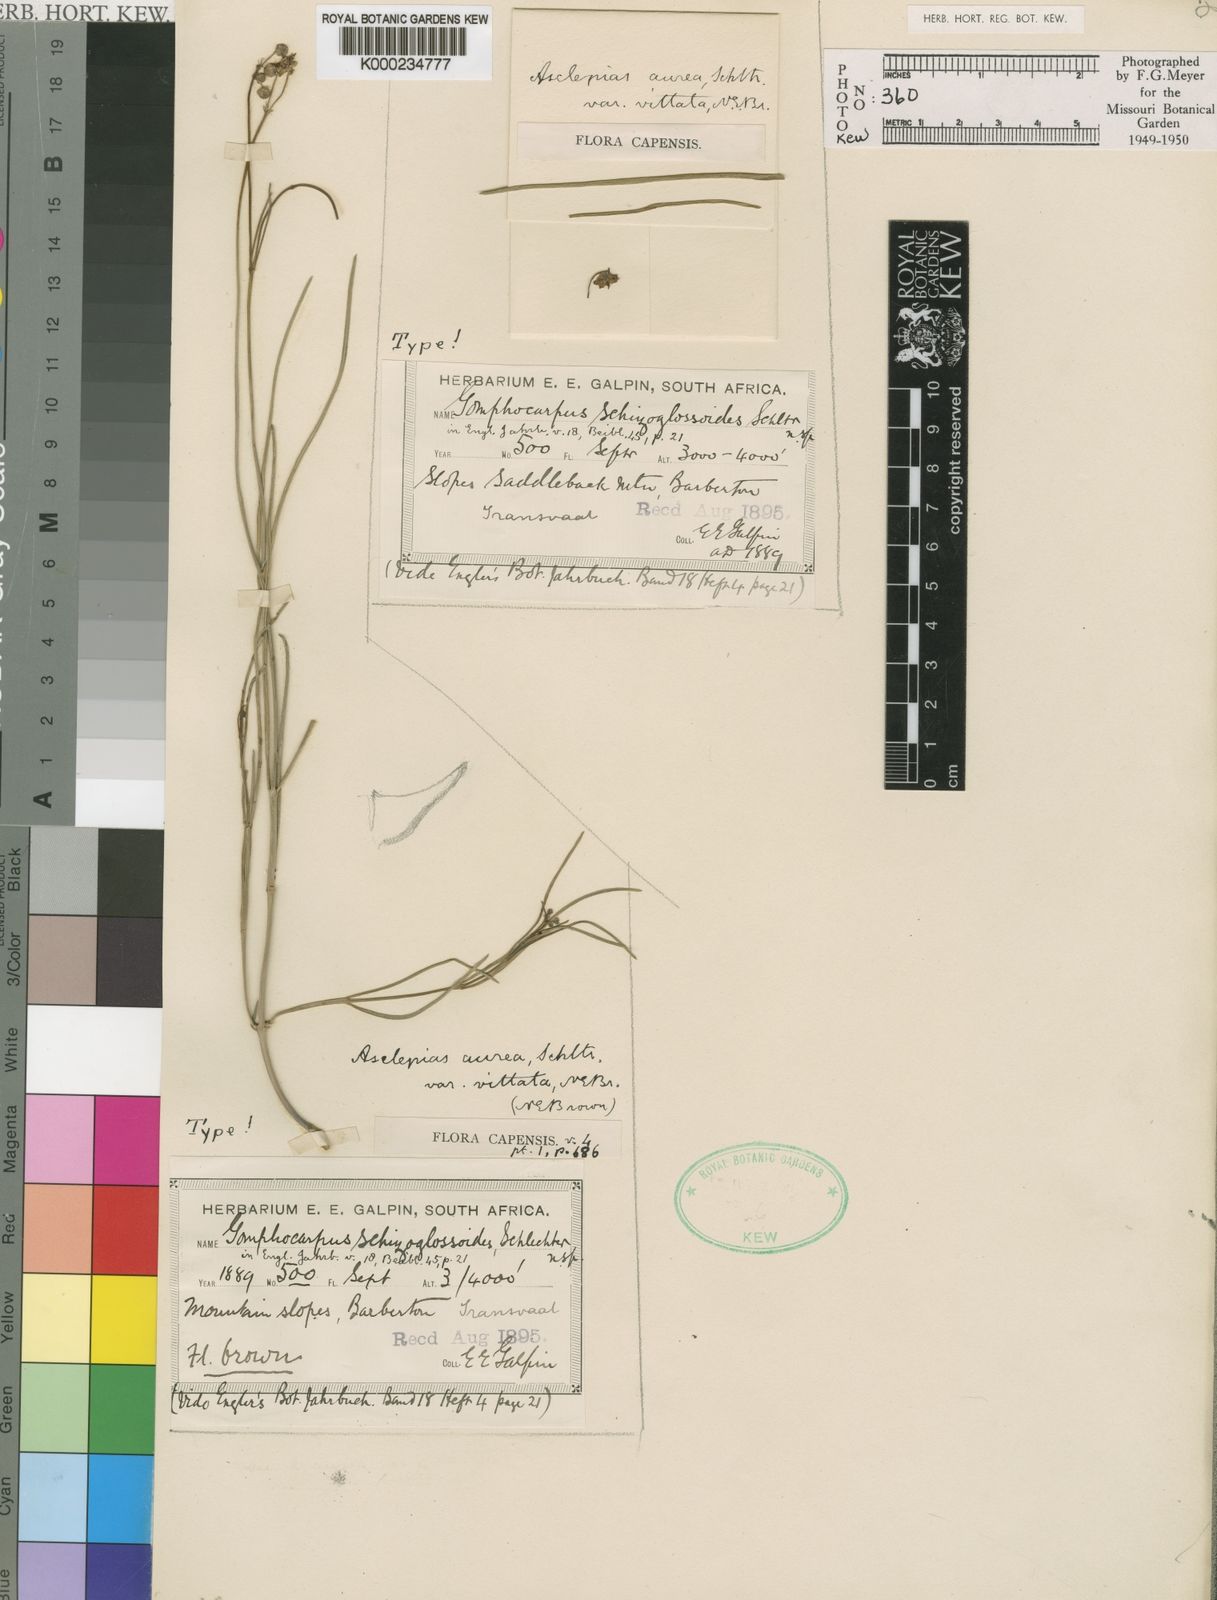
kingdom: Plantae
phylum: Tracheophyta
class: Magnoliopsida
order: Gentianales
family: Apocynaceae
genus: Asclepias
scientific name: Asclepias aurea
